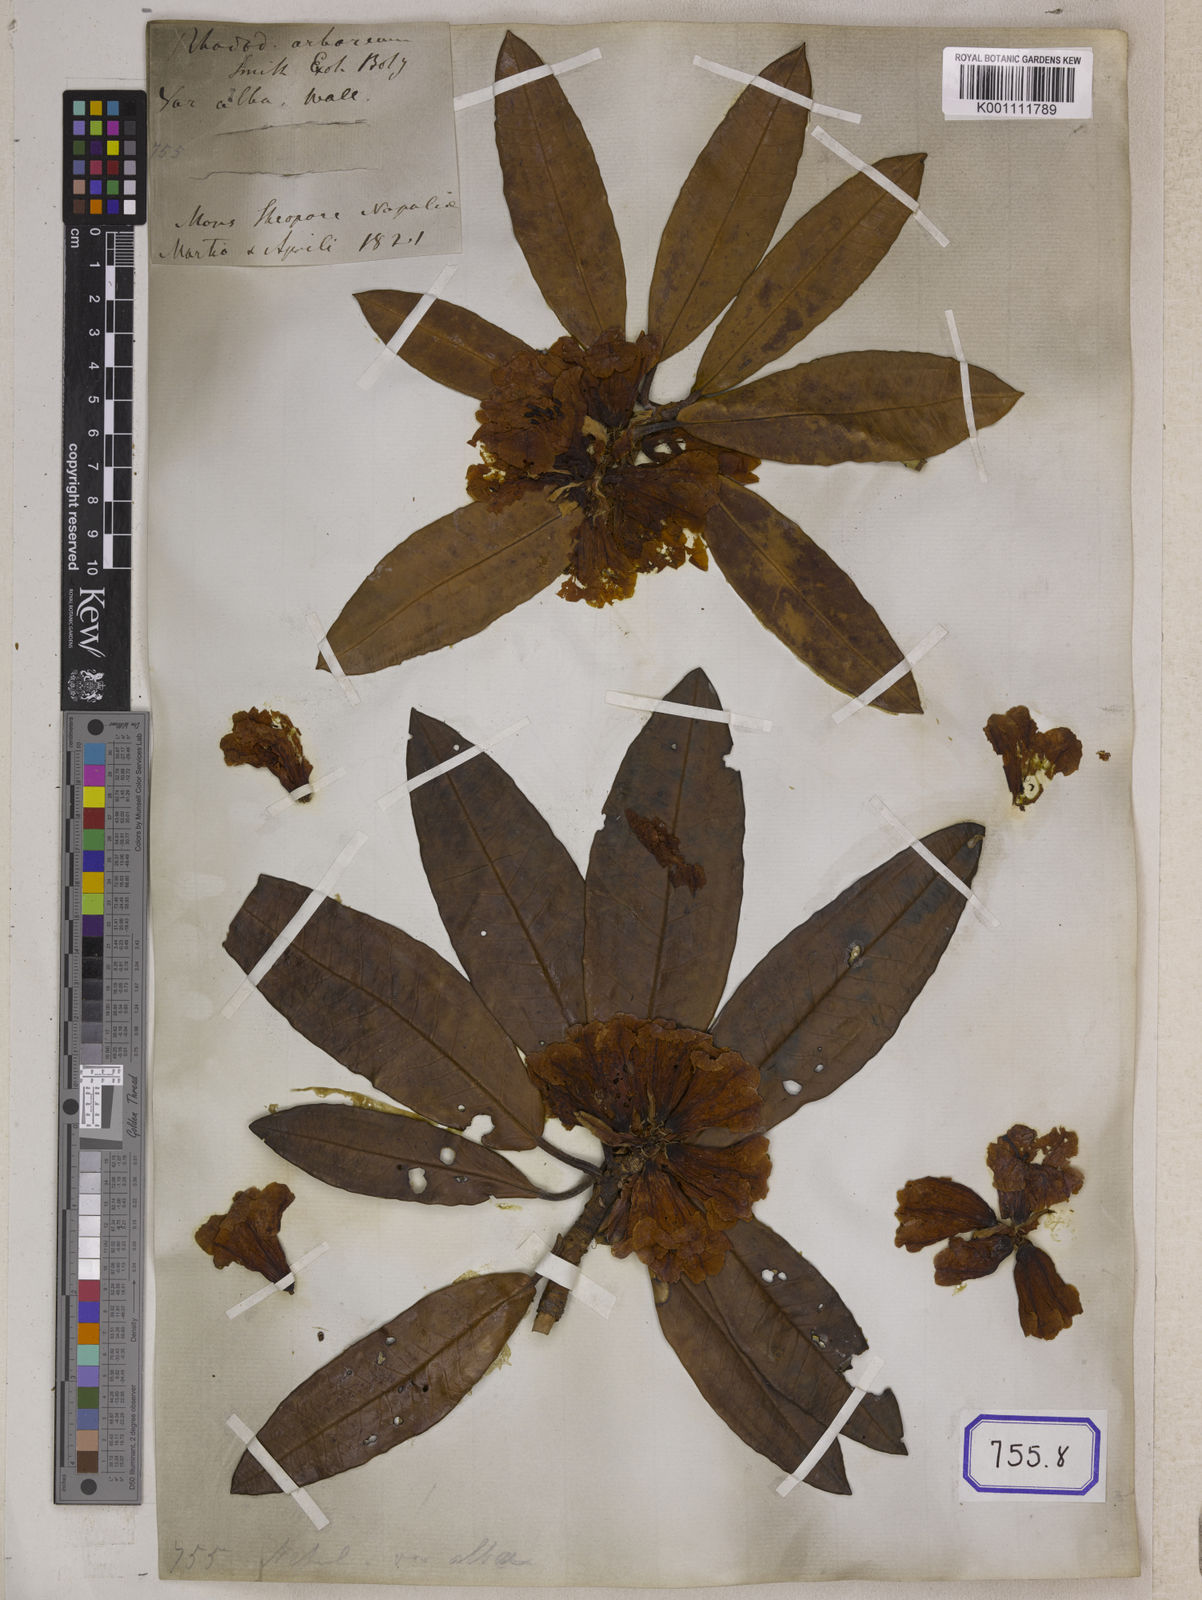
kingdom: Plantae
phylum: Tracheophyta
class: Magnoliopsida
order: Ericales
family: Ericaceae
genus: Rhododendron
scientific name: Rhododendron
